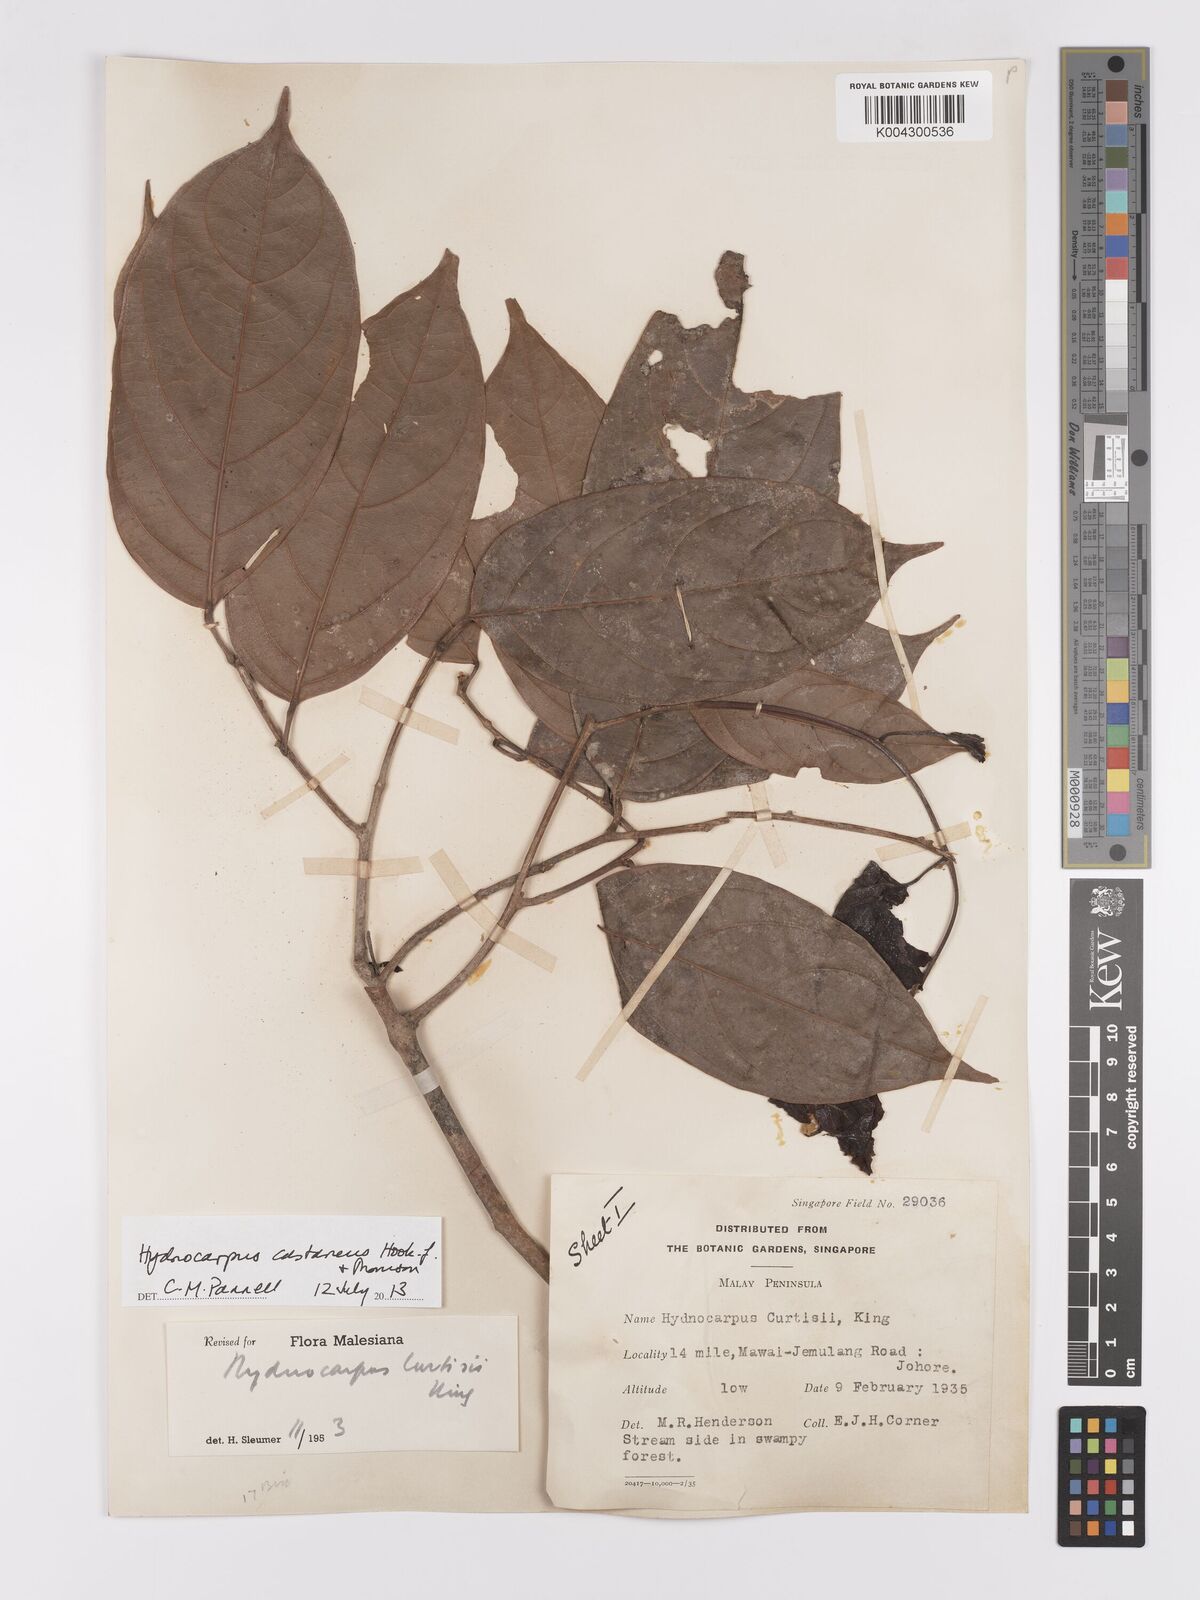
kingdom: Plantae
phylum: Tracheophyta
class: Magnoliopsida
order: Malpighiales
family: Achariaceae
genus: Hydnocarpus
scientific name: Hydnocarpus curtisii
